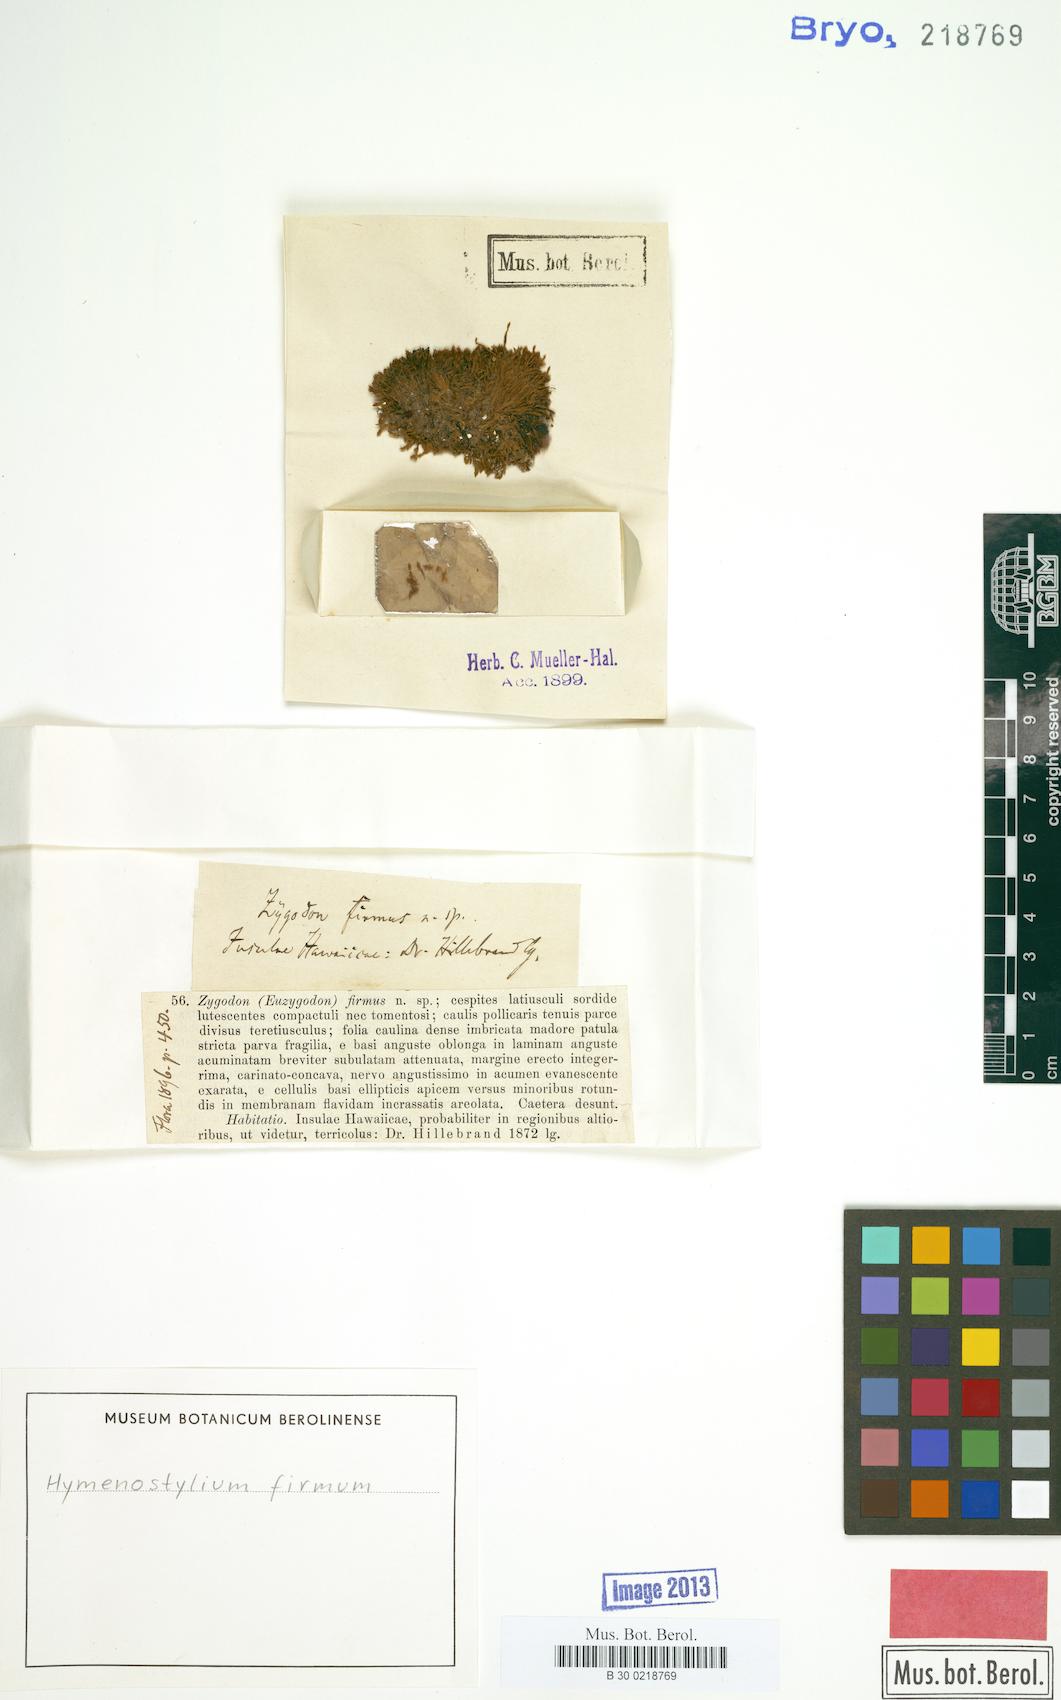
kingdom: Plantae
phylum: Bryophyta
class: Bryopsida
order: Pottiales
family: Pottiaceae
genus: Hymenostylium
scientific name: Hymenostylium recurvirostrum
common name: Hook-beak tufa-moss
